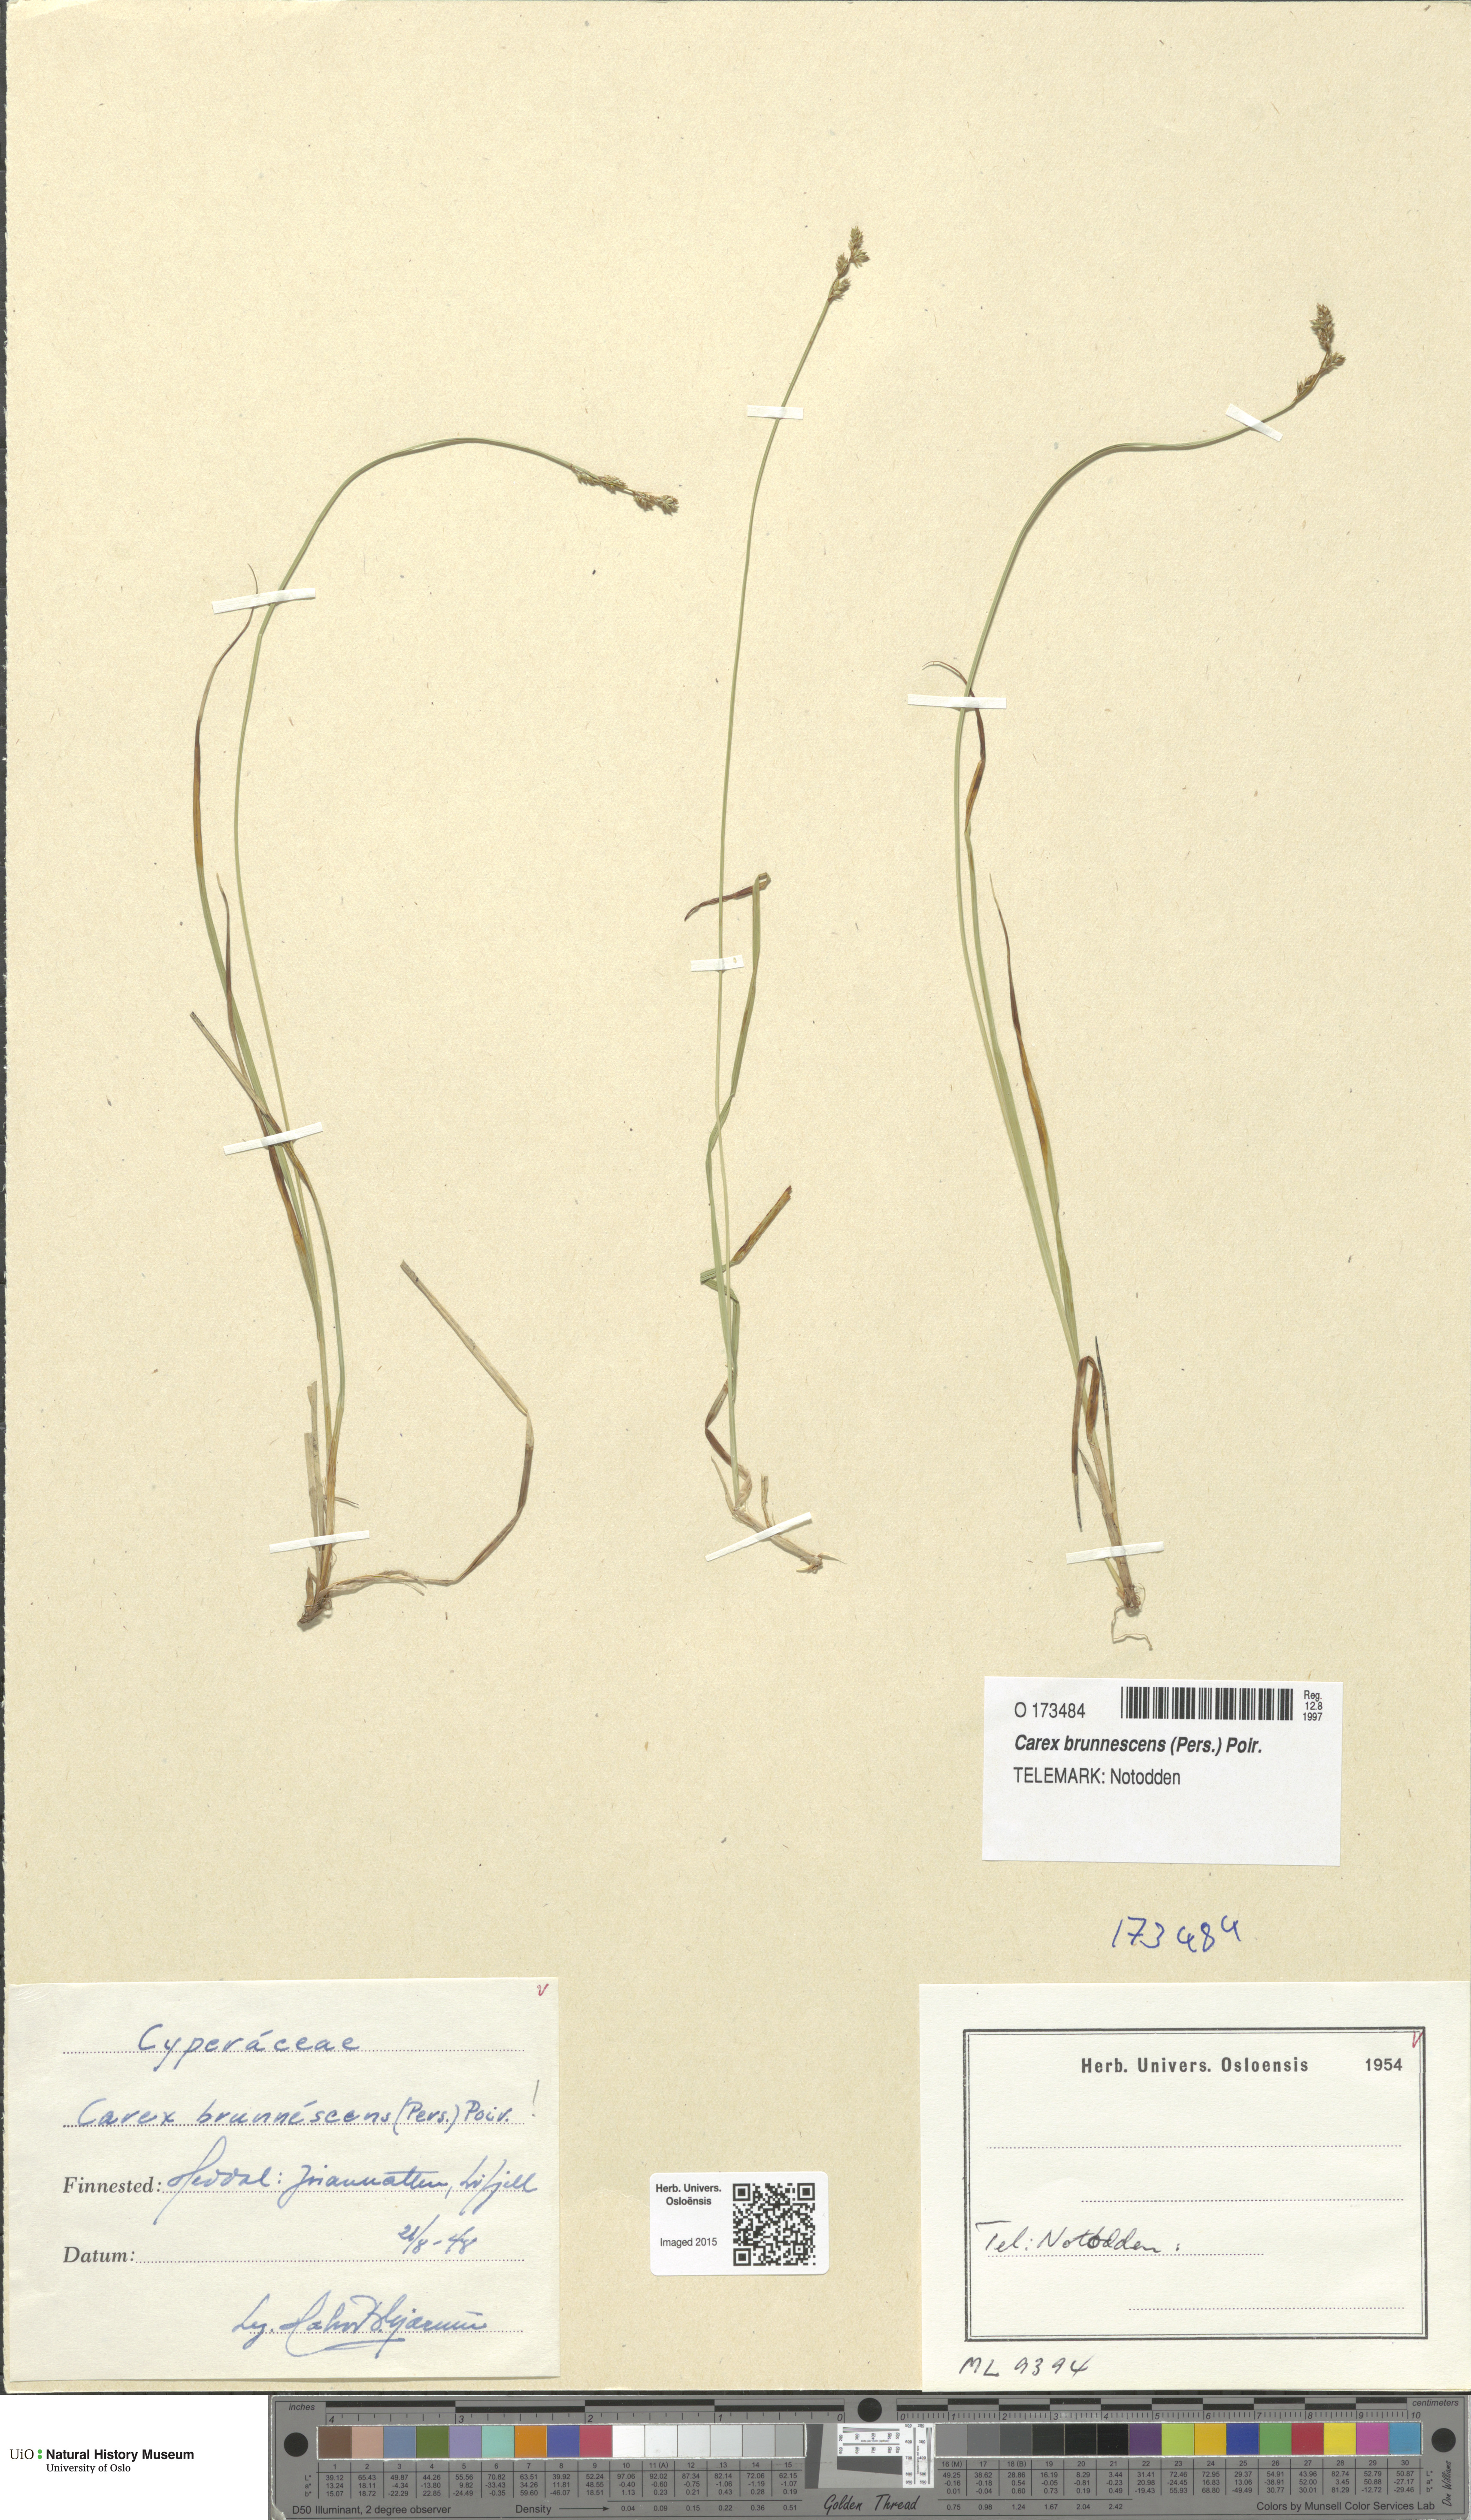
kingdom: Plantae
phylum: Tracheophyta
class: Liliopsida
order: Poales
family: Cyperaceae
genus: Carex
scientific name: Carex brunnescens
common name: Brown sedge
